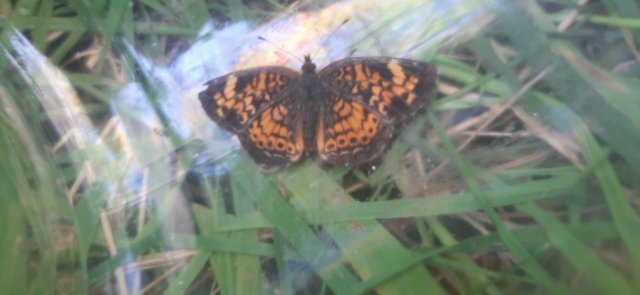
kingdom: Animalia
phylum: Arthropoda
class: Insecta
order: Lepidoptera
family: Nymphalidae
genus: Phyciodes
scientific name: Phyciodes
